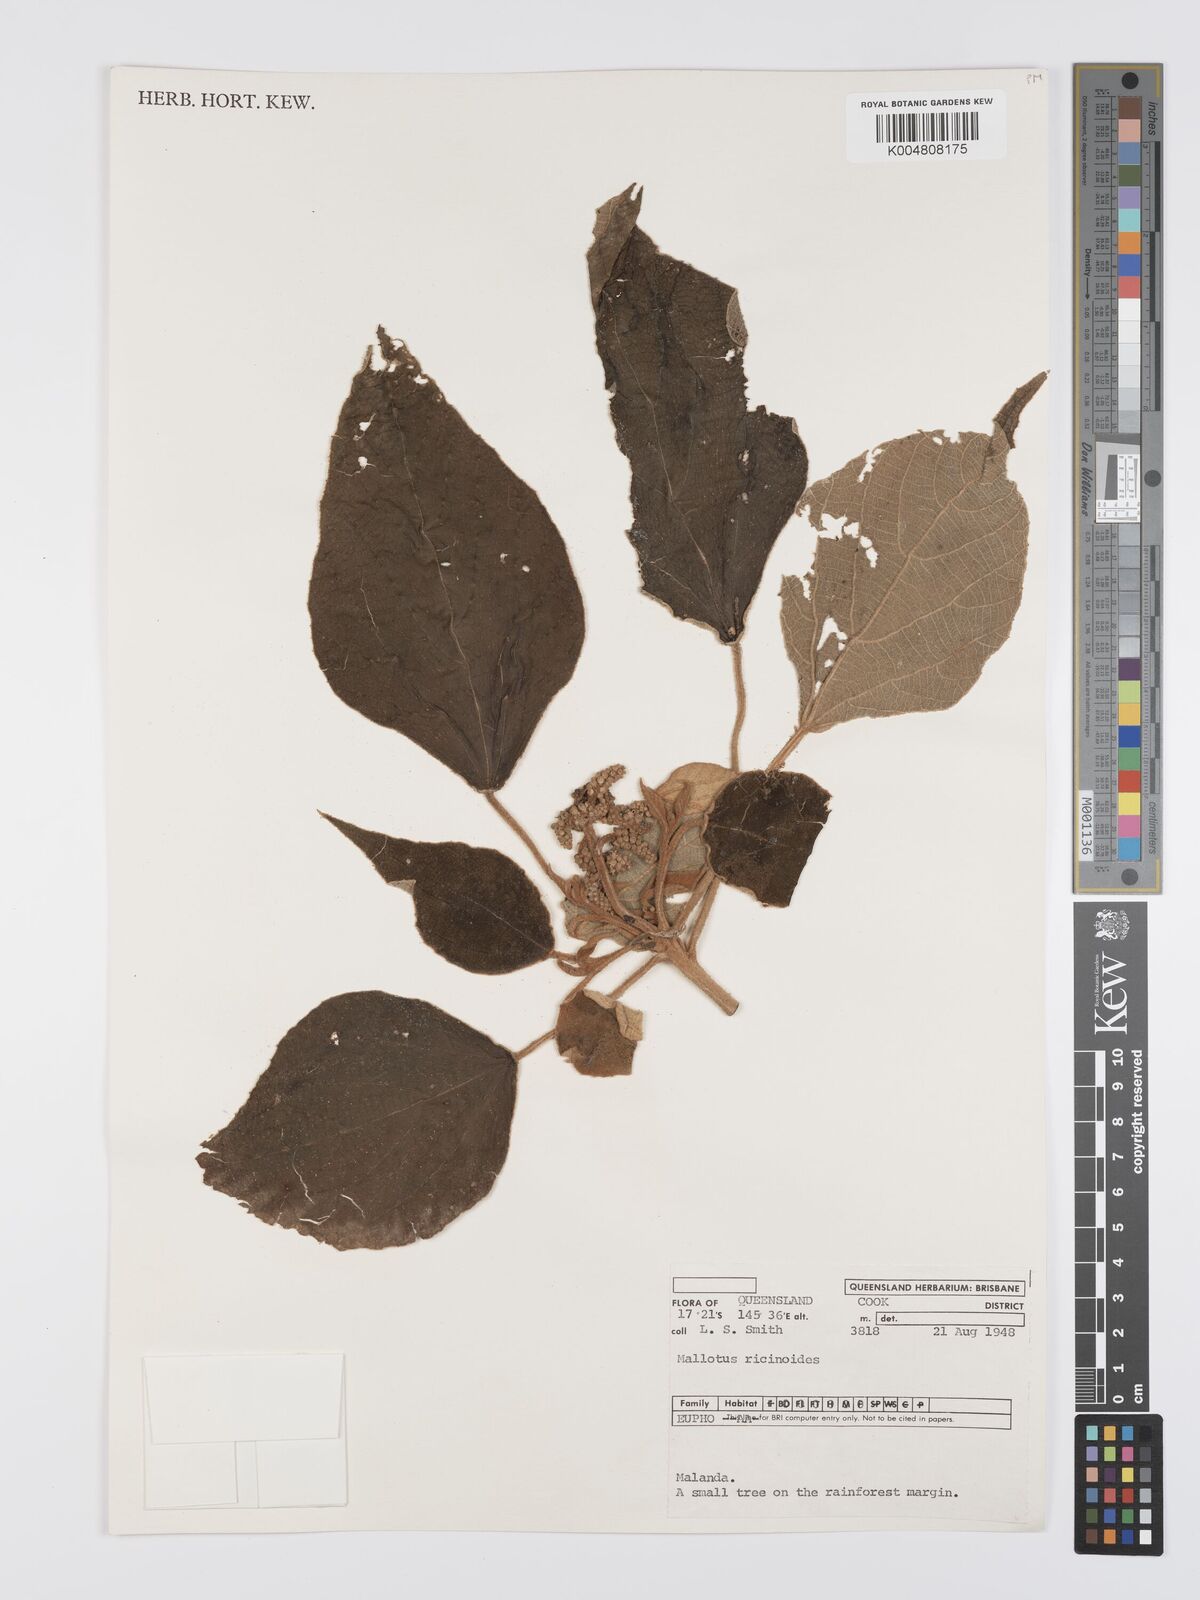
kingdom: Plantae
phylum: Tracheophyta
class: Magnoliopsida
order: Malpighiales
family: Euphorbiaceae
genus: Mallotus
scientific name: Mallotus mollissimus
